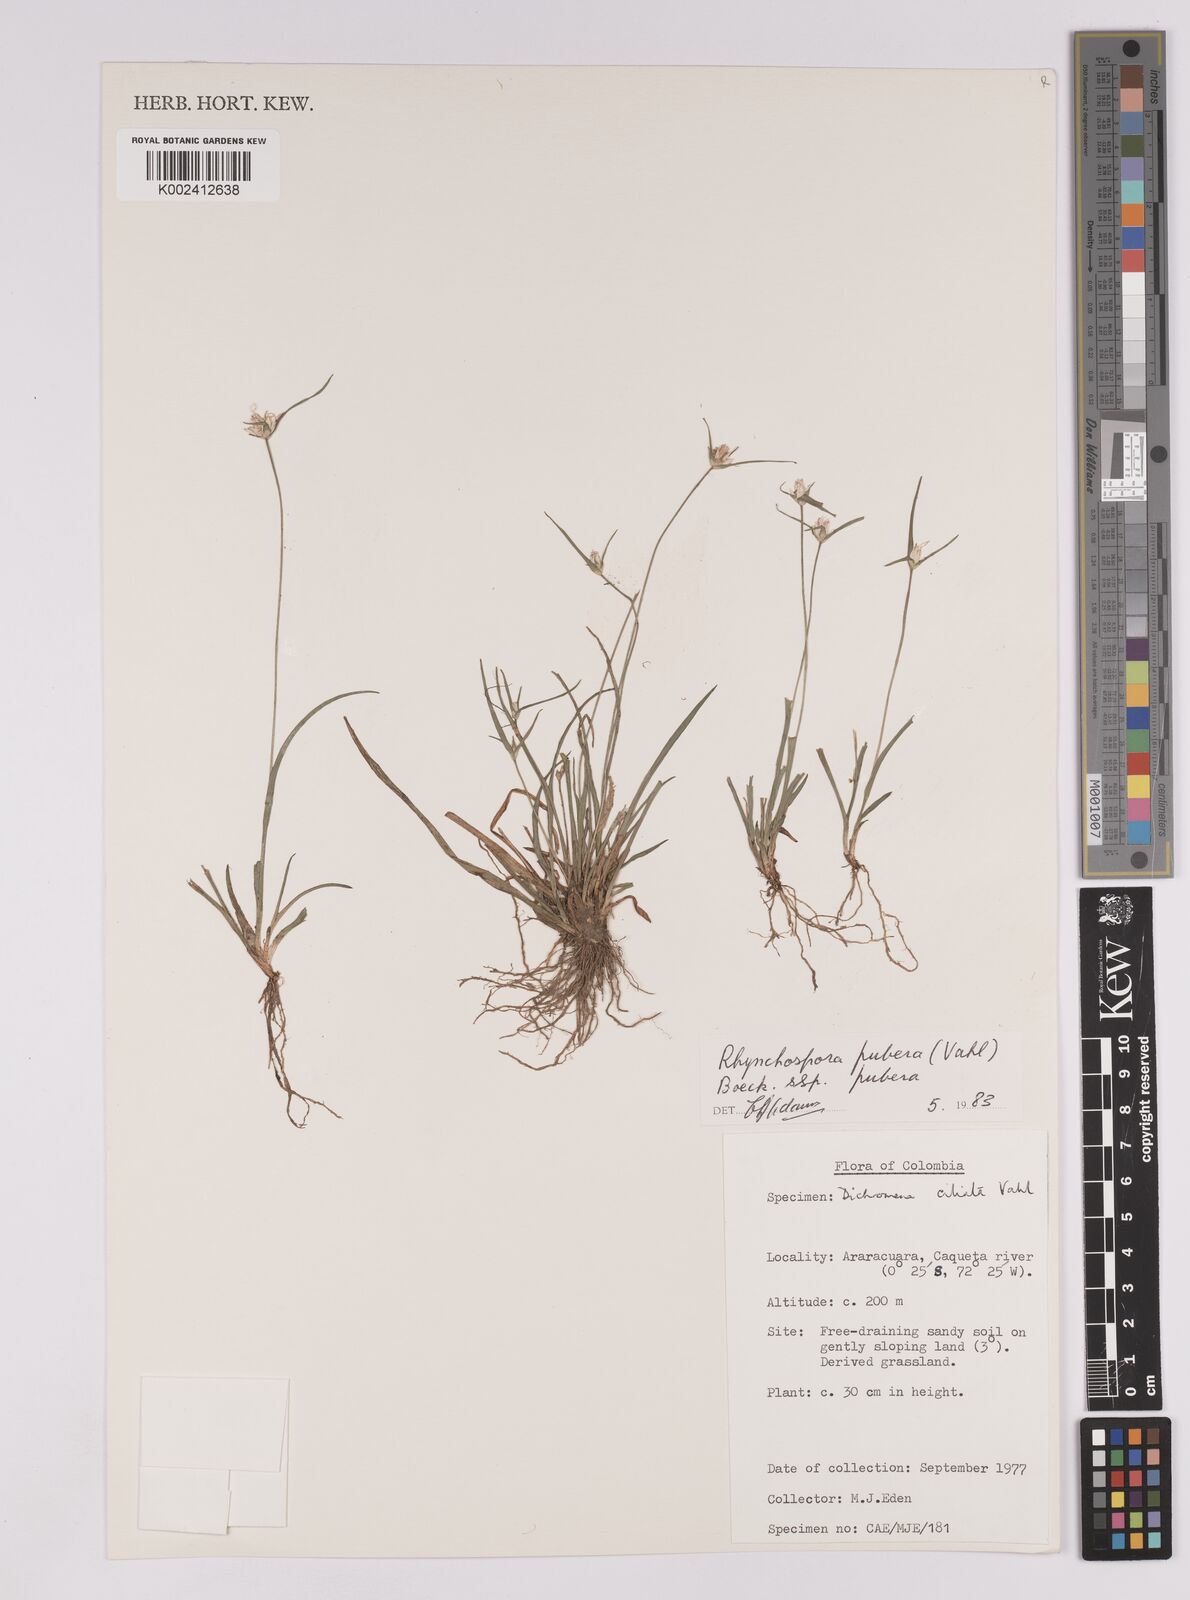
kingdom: Plantae
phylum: Tracheophyta
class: Liliopsida
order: Poales
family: Cyperaceae
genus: Rhynchospora
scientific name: Rhynchospora pubera
